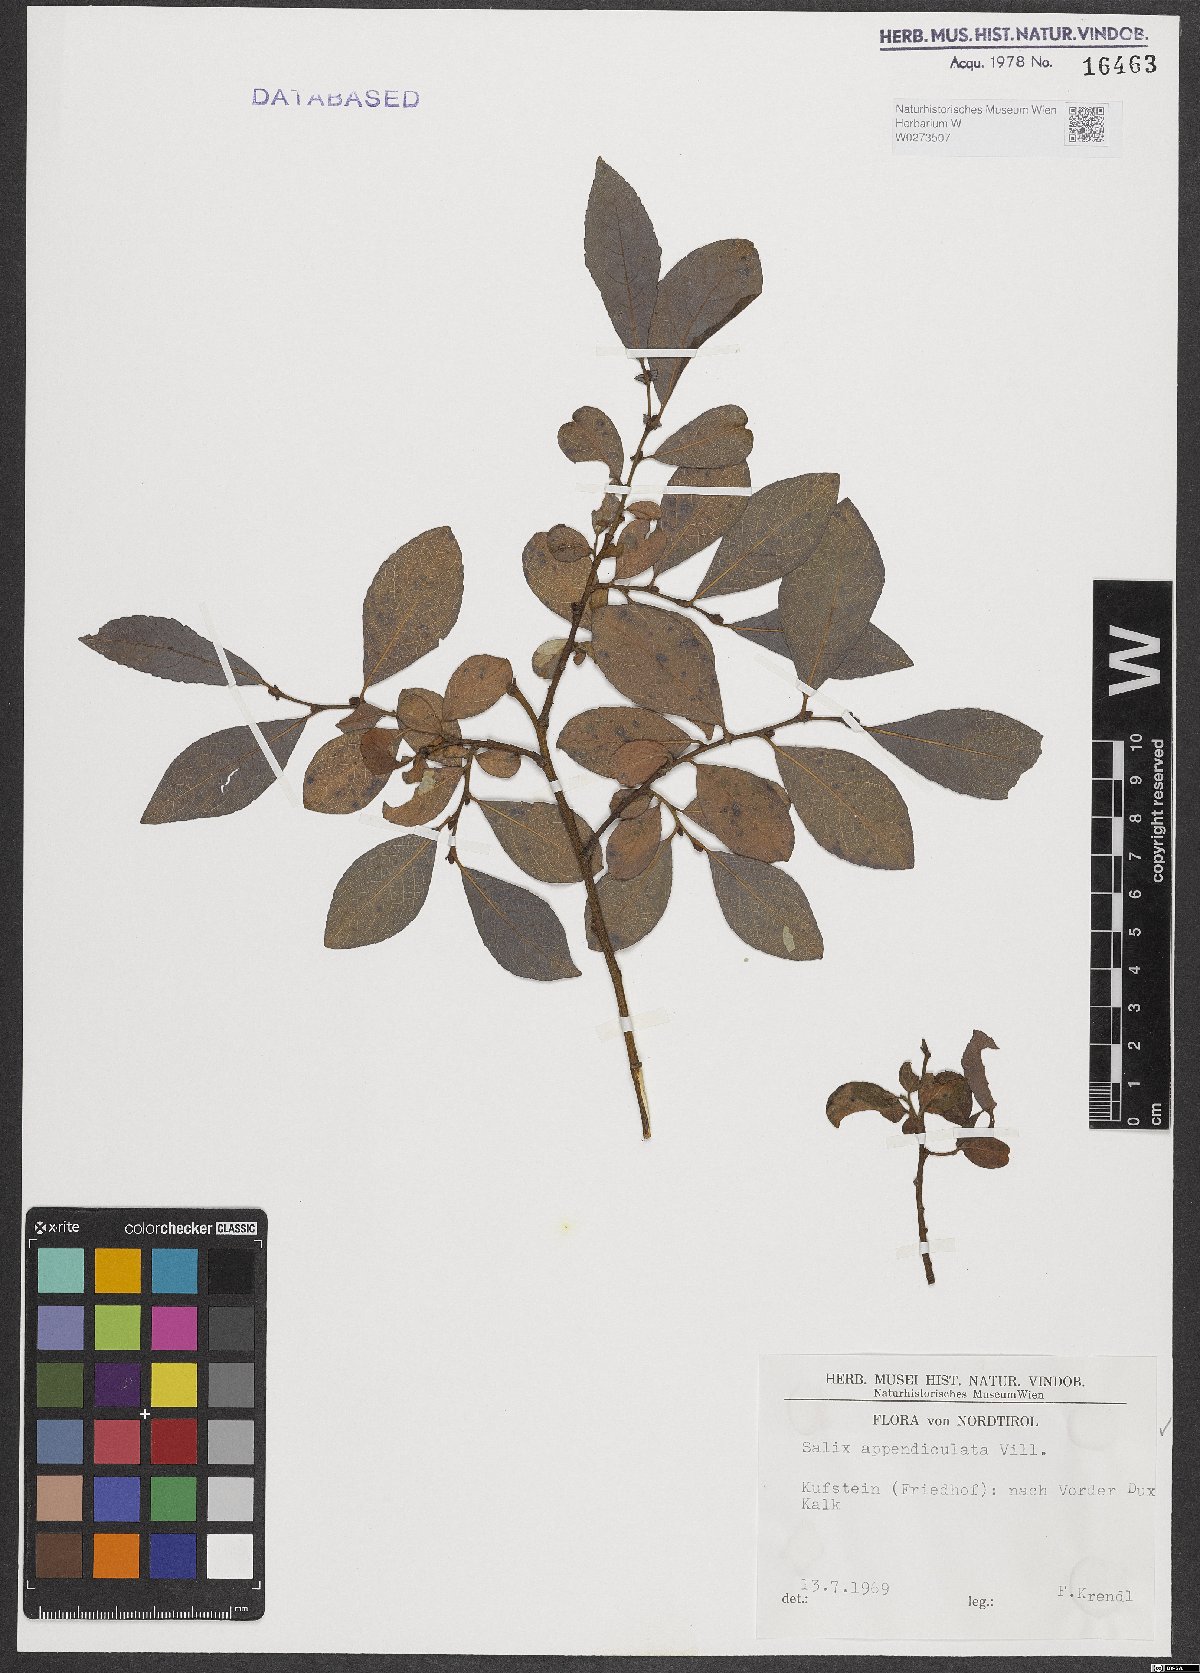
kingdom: Plantae
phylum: Tracheophyta
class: Magnoliopsida
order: Malpighiales
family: Salicaceae
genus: Salix
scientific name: Salix appendiculata
